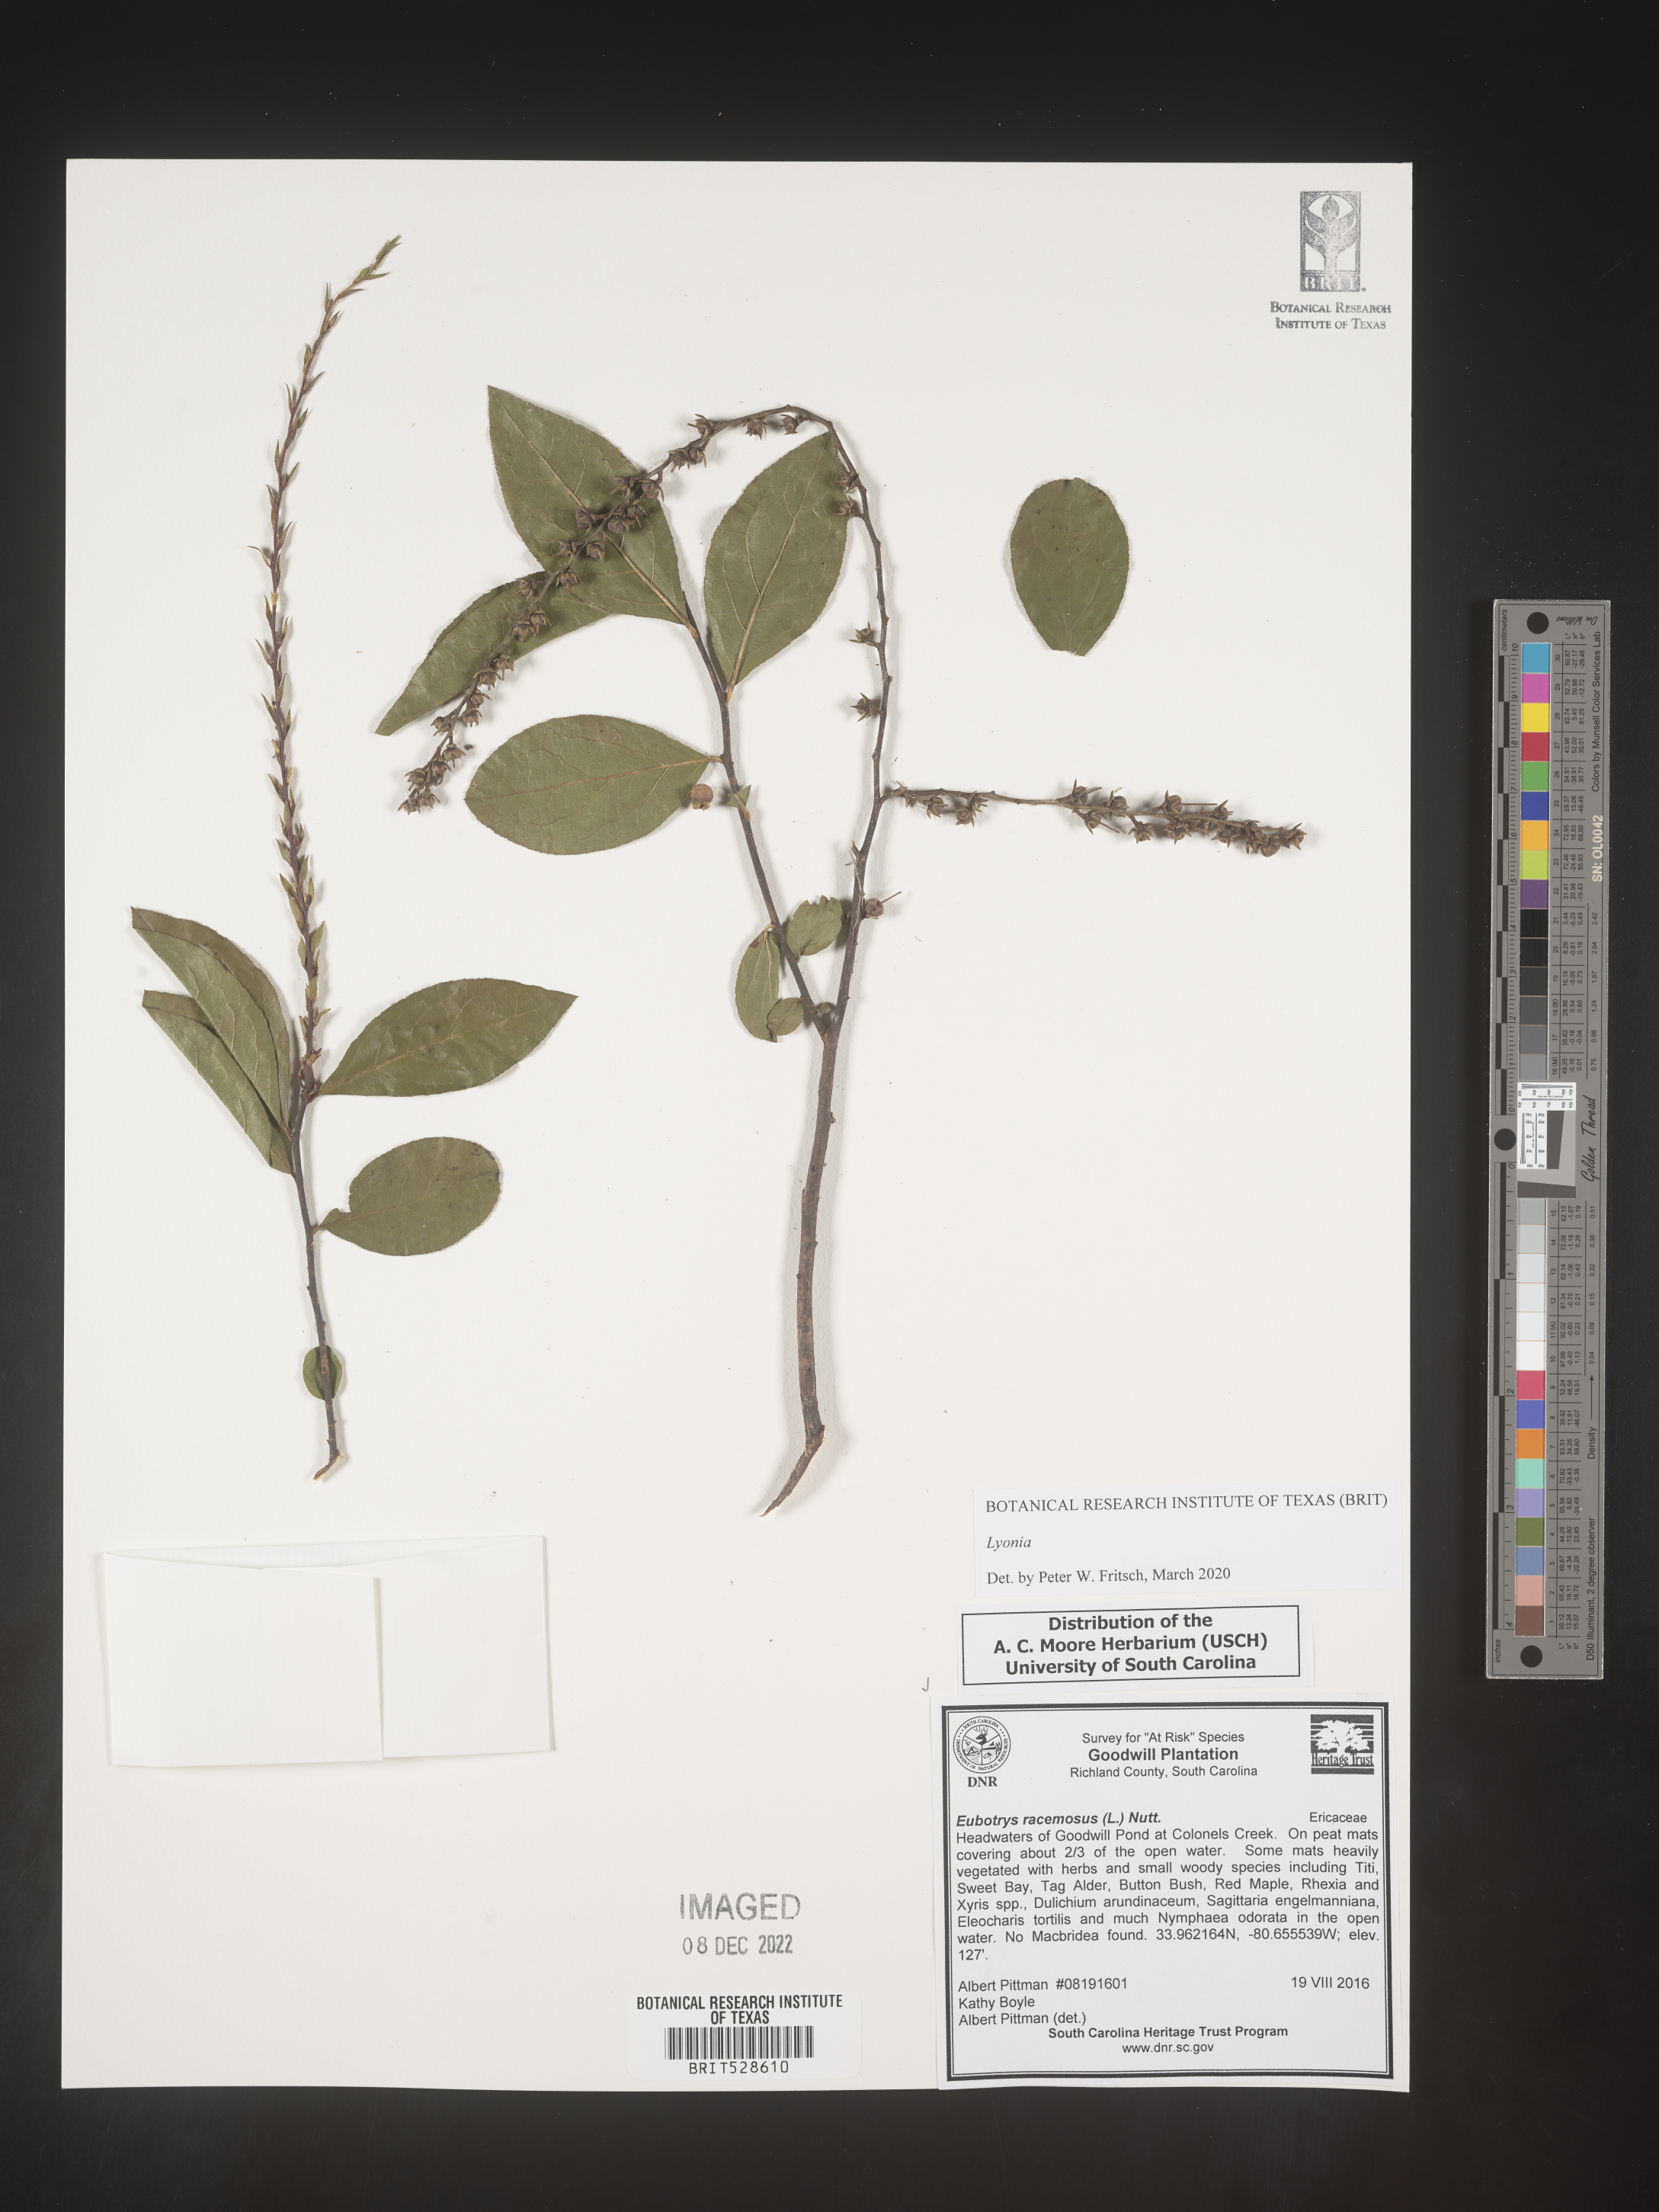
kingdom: Plantae
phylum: Tracheophyta
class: Magnoliopsida
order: Ericales
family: Ericaceae
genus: Lyonia
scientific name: Lyonia
